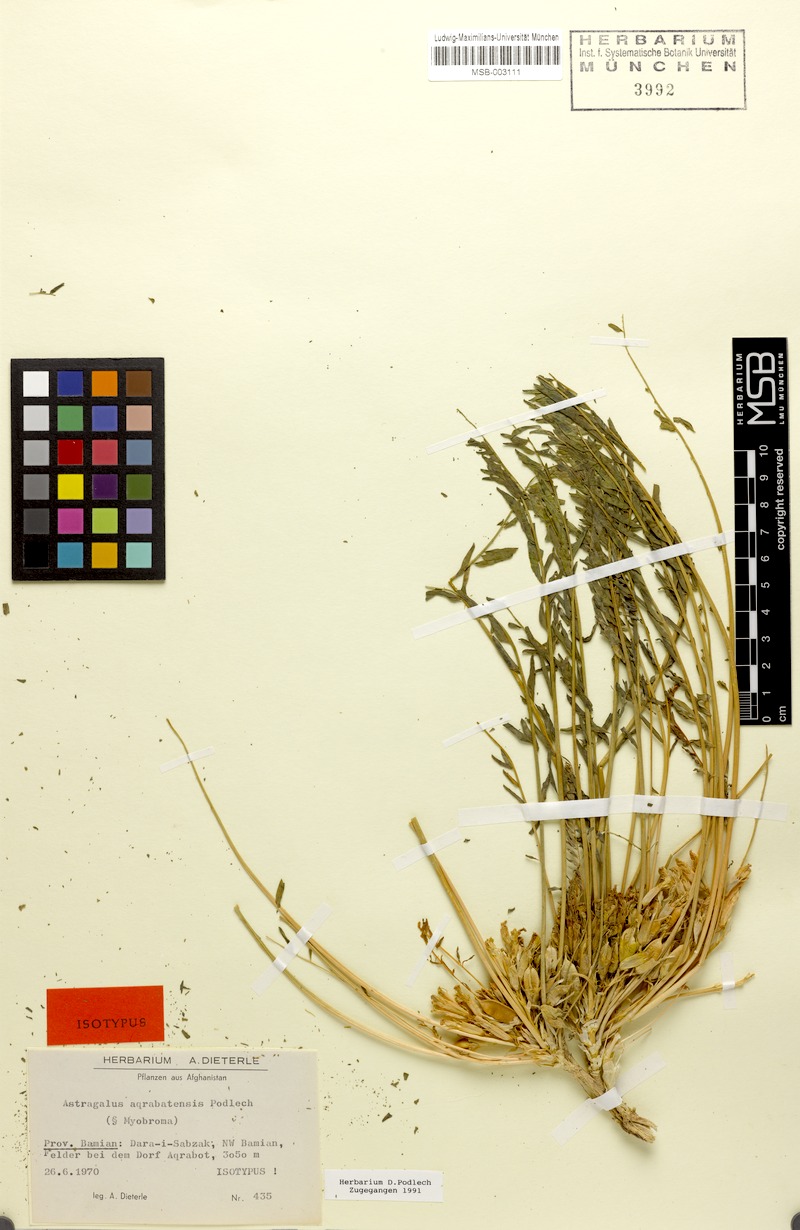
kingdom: Plantae
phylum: Tracheophyta
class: Magnoliopsida
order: Fabales
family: Fabaceae
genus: Astragalus
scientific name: Astragalus aqrabatensis
